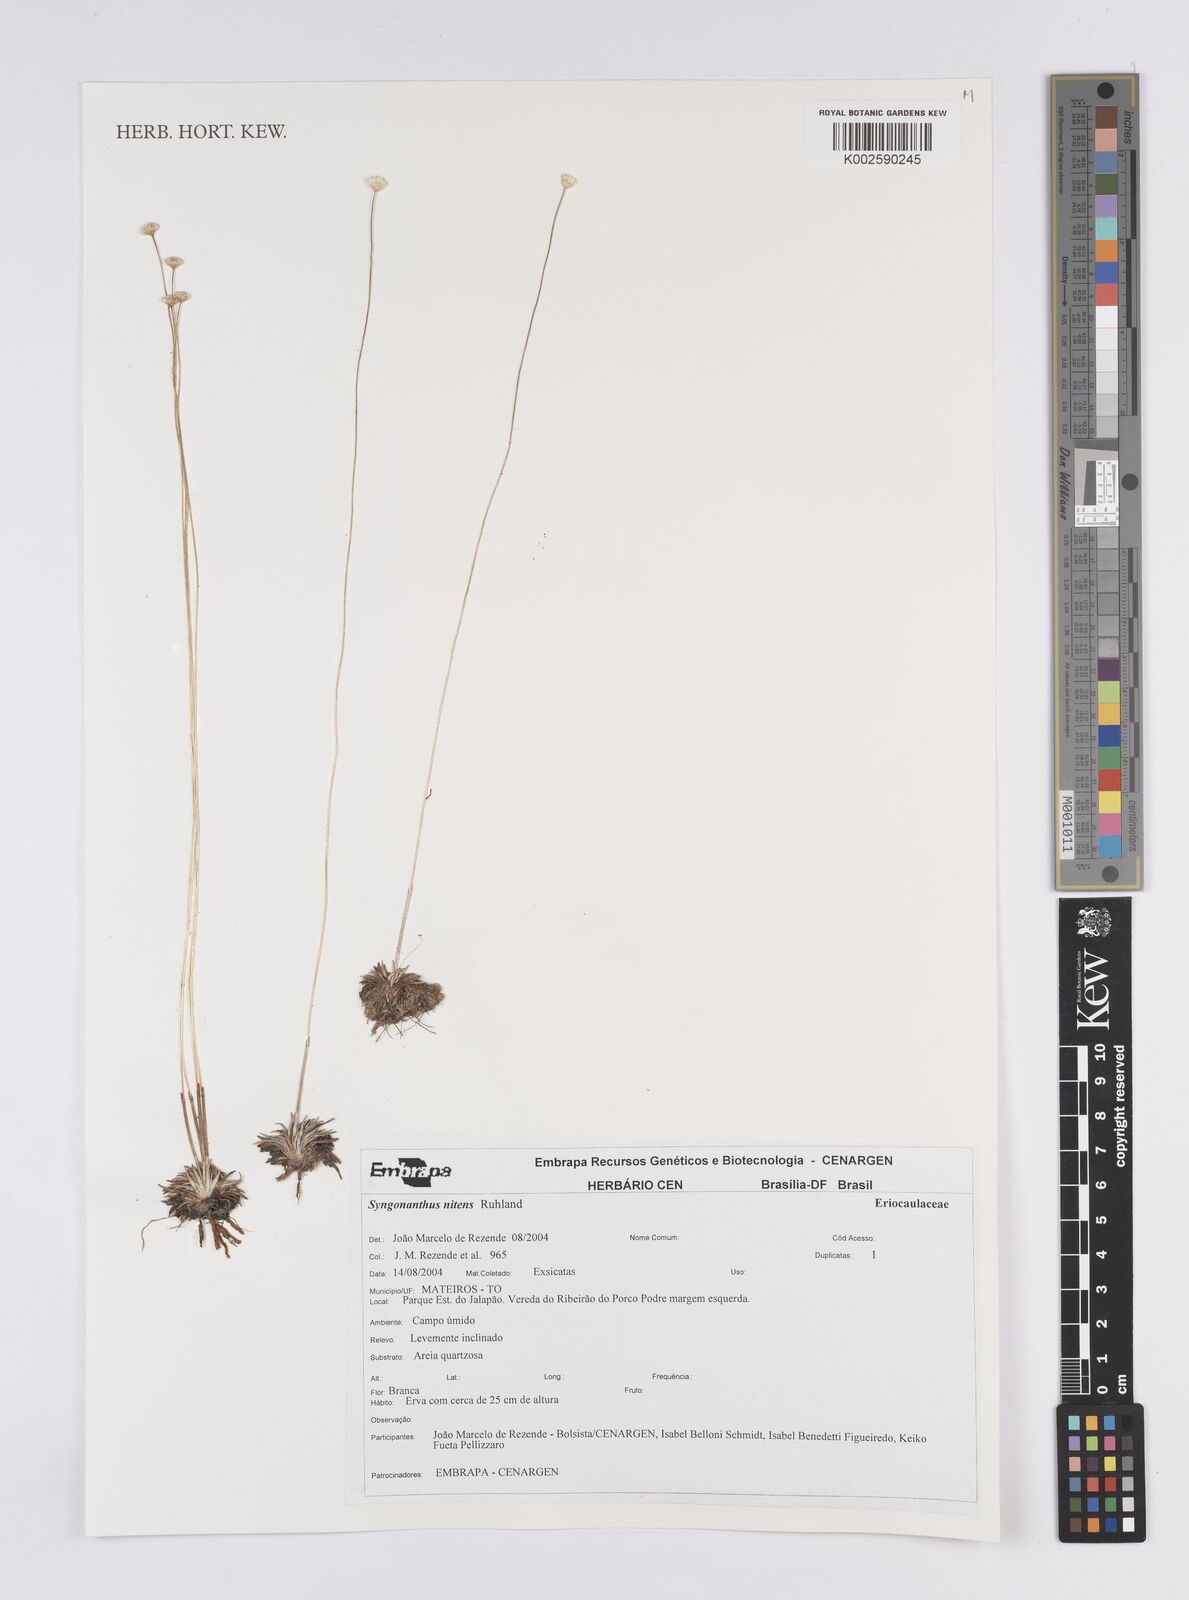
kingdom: Plantae
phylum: Tracheophyta
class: Liliopsida
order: Poales
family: Eriocaulaceae
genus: Syngonanthus
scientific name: Syngonanthus nitens
